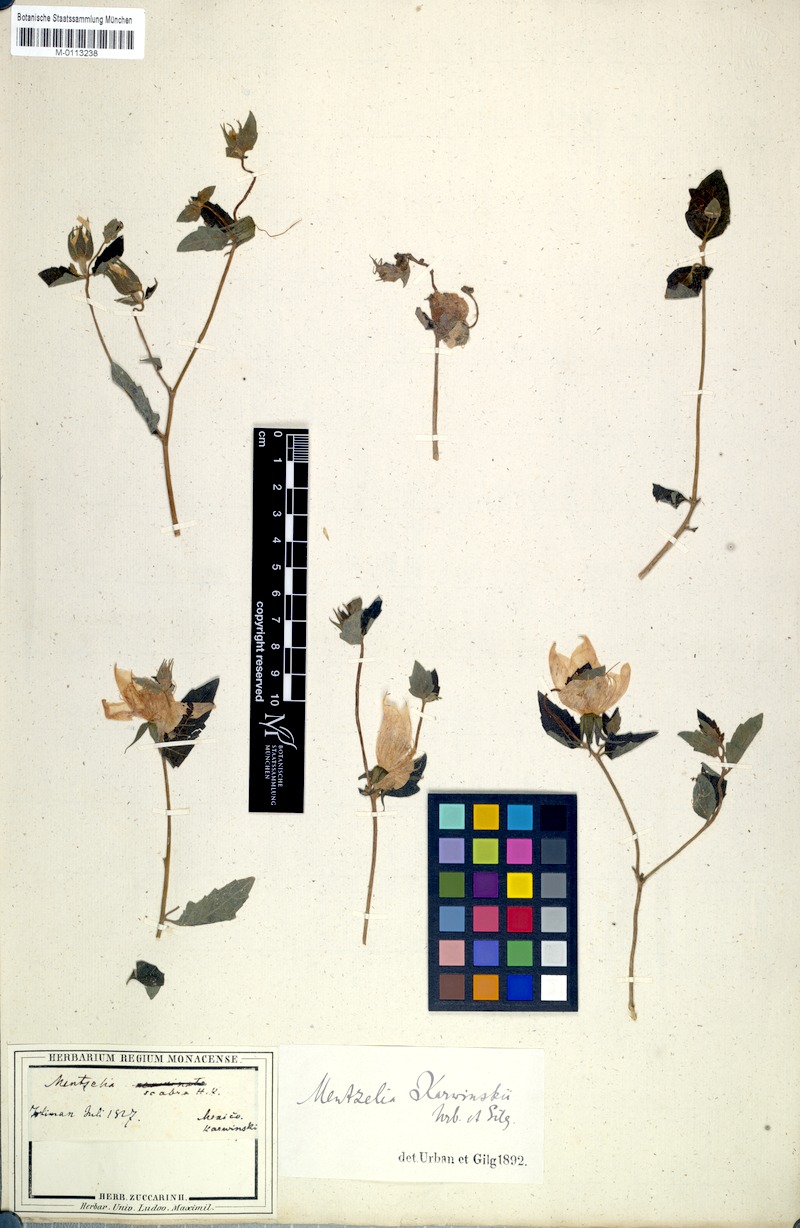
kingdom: Plantae
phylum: Tracheophyta
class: Magnoliopsida
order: Cornales
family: Loasaceae
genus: Mentzelia
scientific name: Mentzelia hispida
